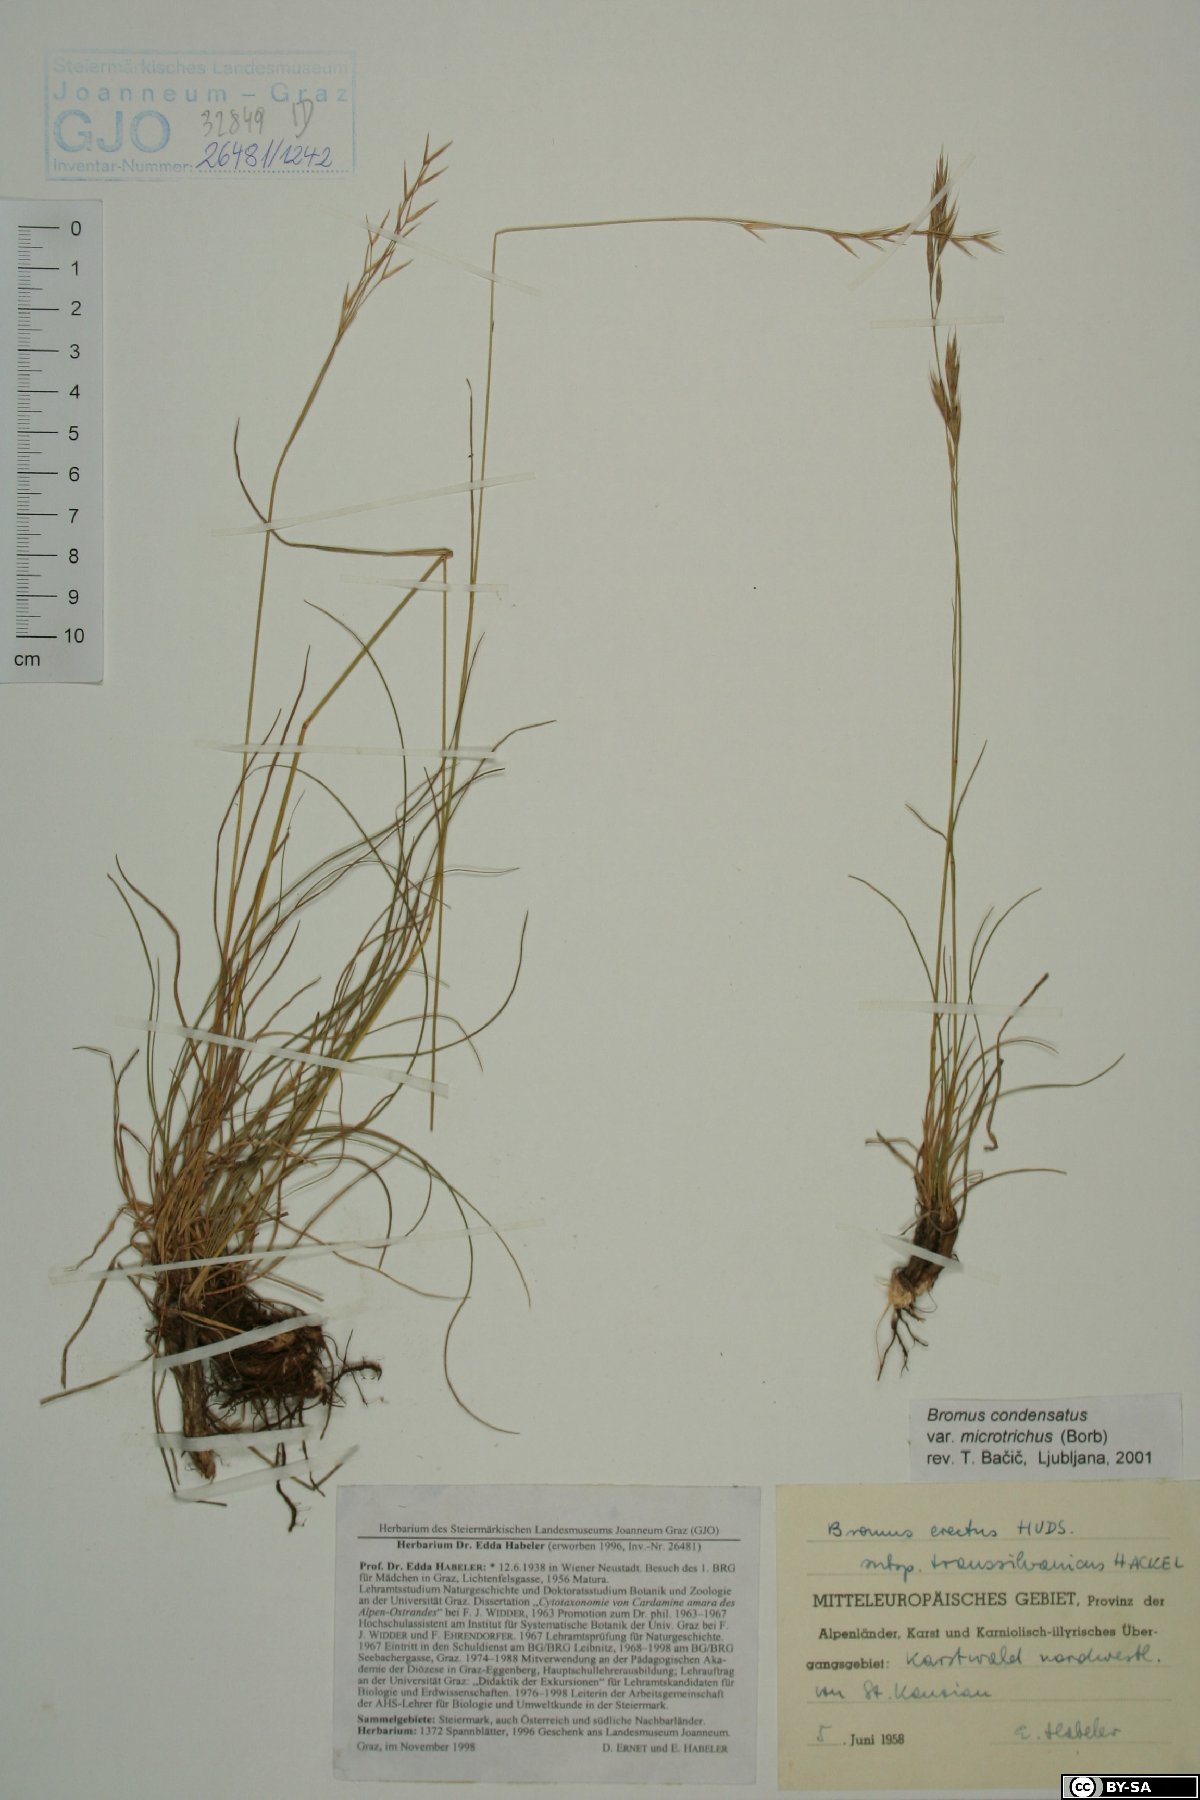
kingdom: Plantae
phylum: Tracheophyta
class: Liliopsida
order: Poales
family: Poaceae
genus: Bromus
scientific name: Bromus condensatus
